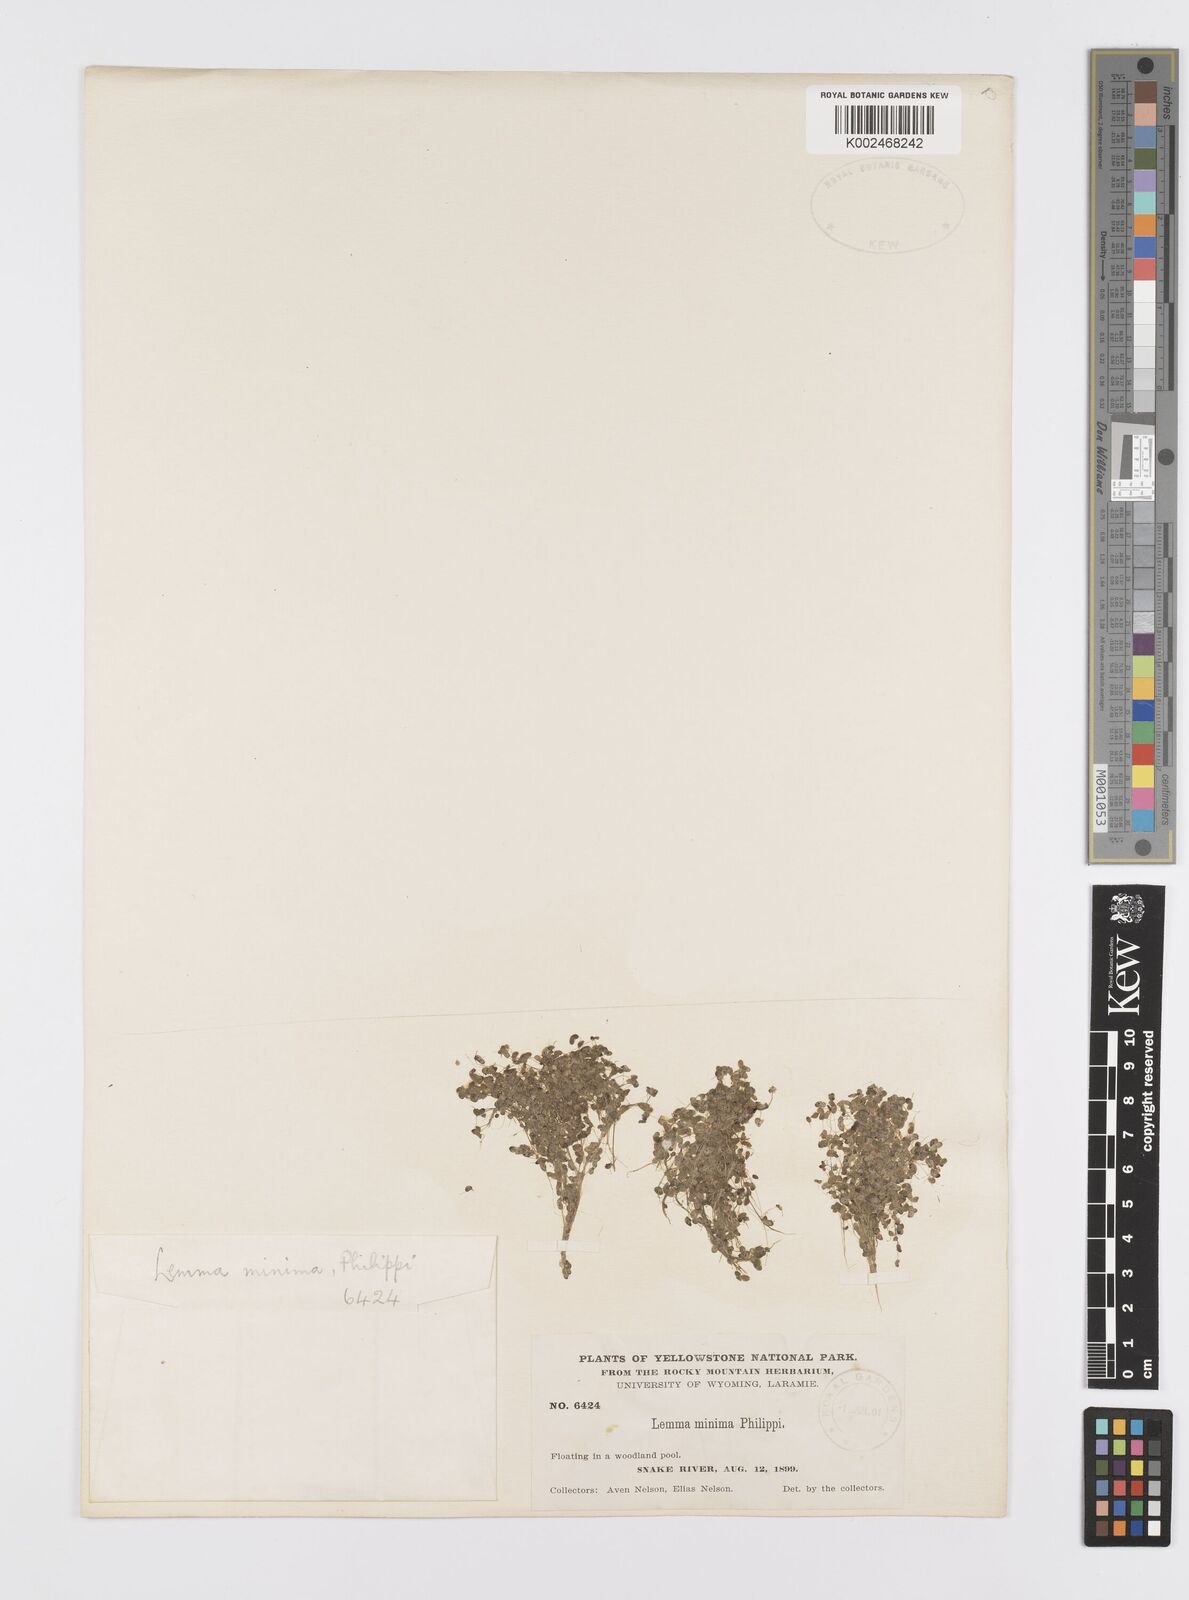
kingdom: Plantae
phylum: Tracheophyta
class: Liliopsida
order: Alismatales
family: Araceae
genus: Lemna
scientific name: Lemna minuta
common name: Least duckweed
